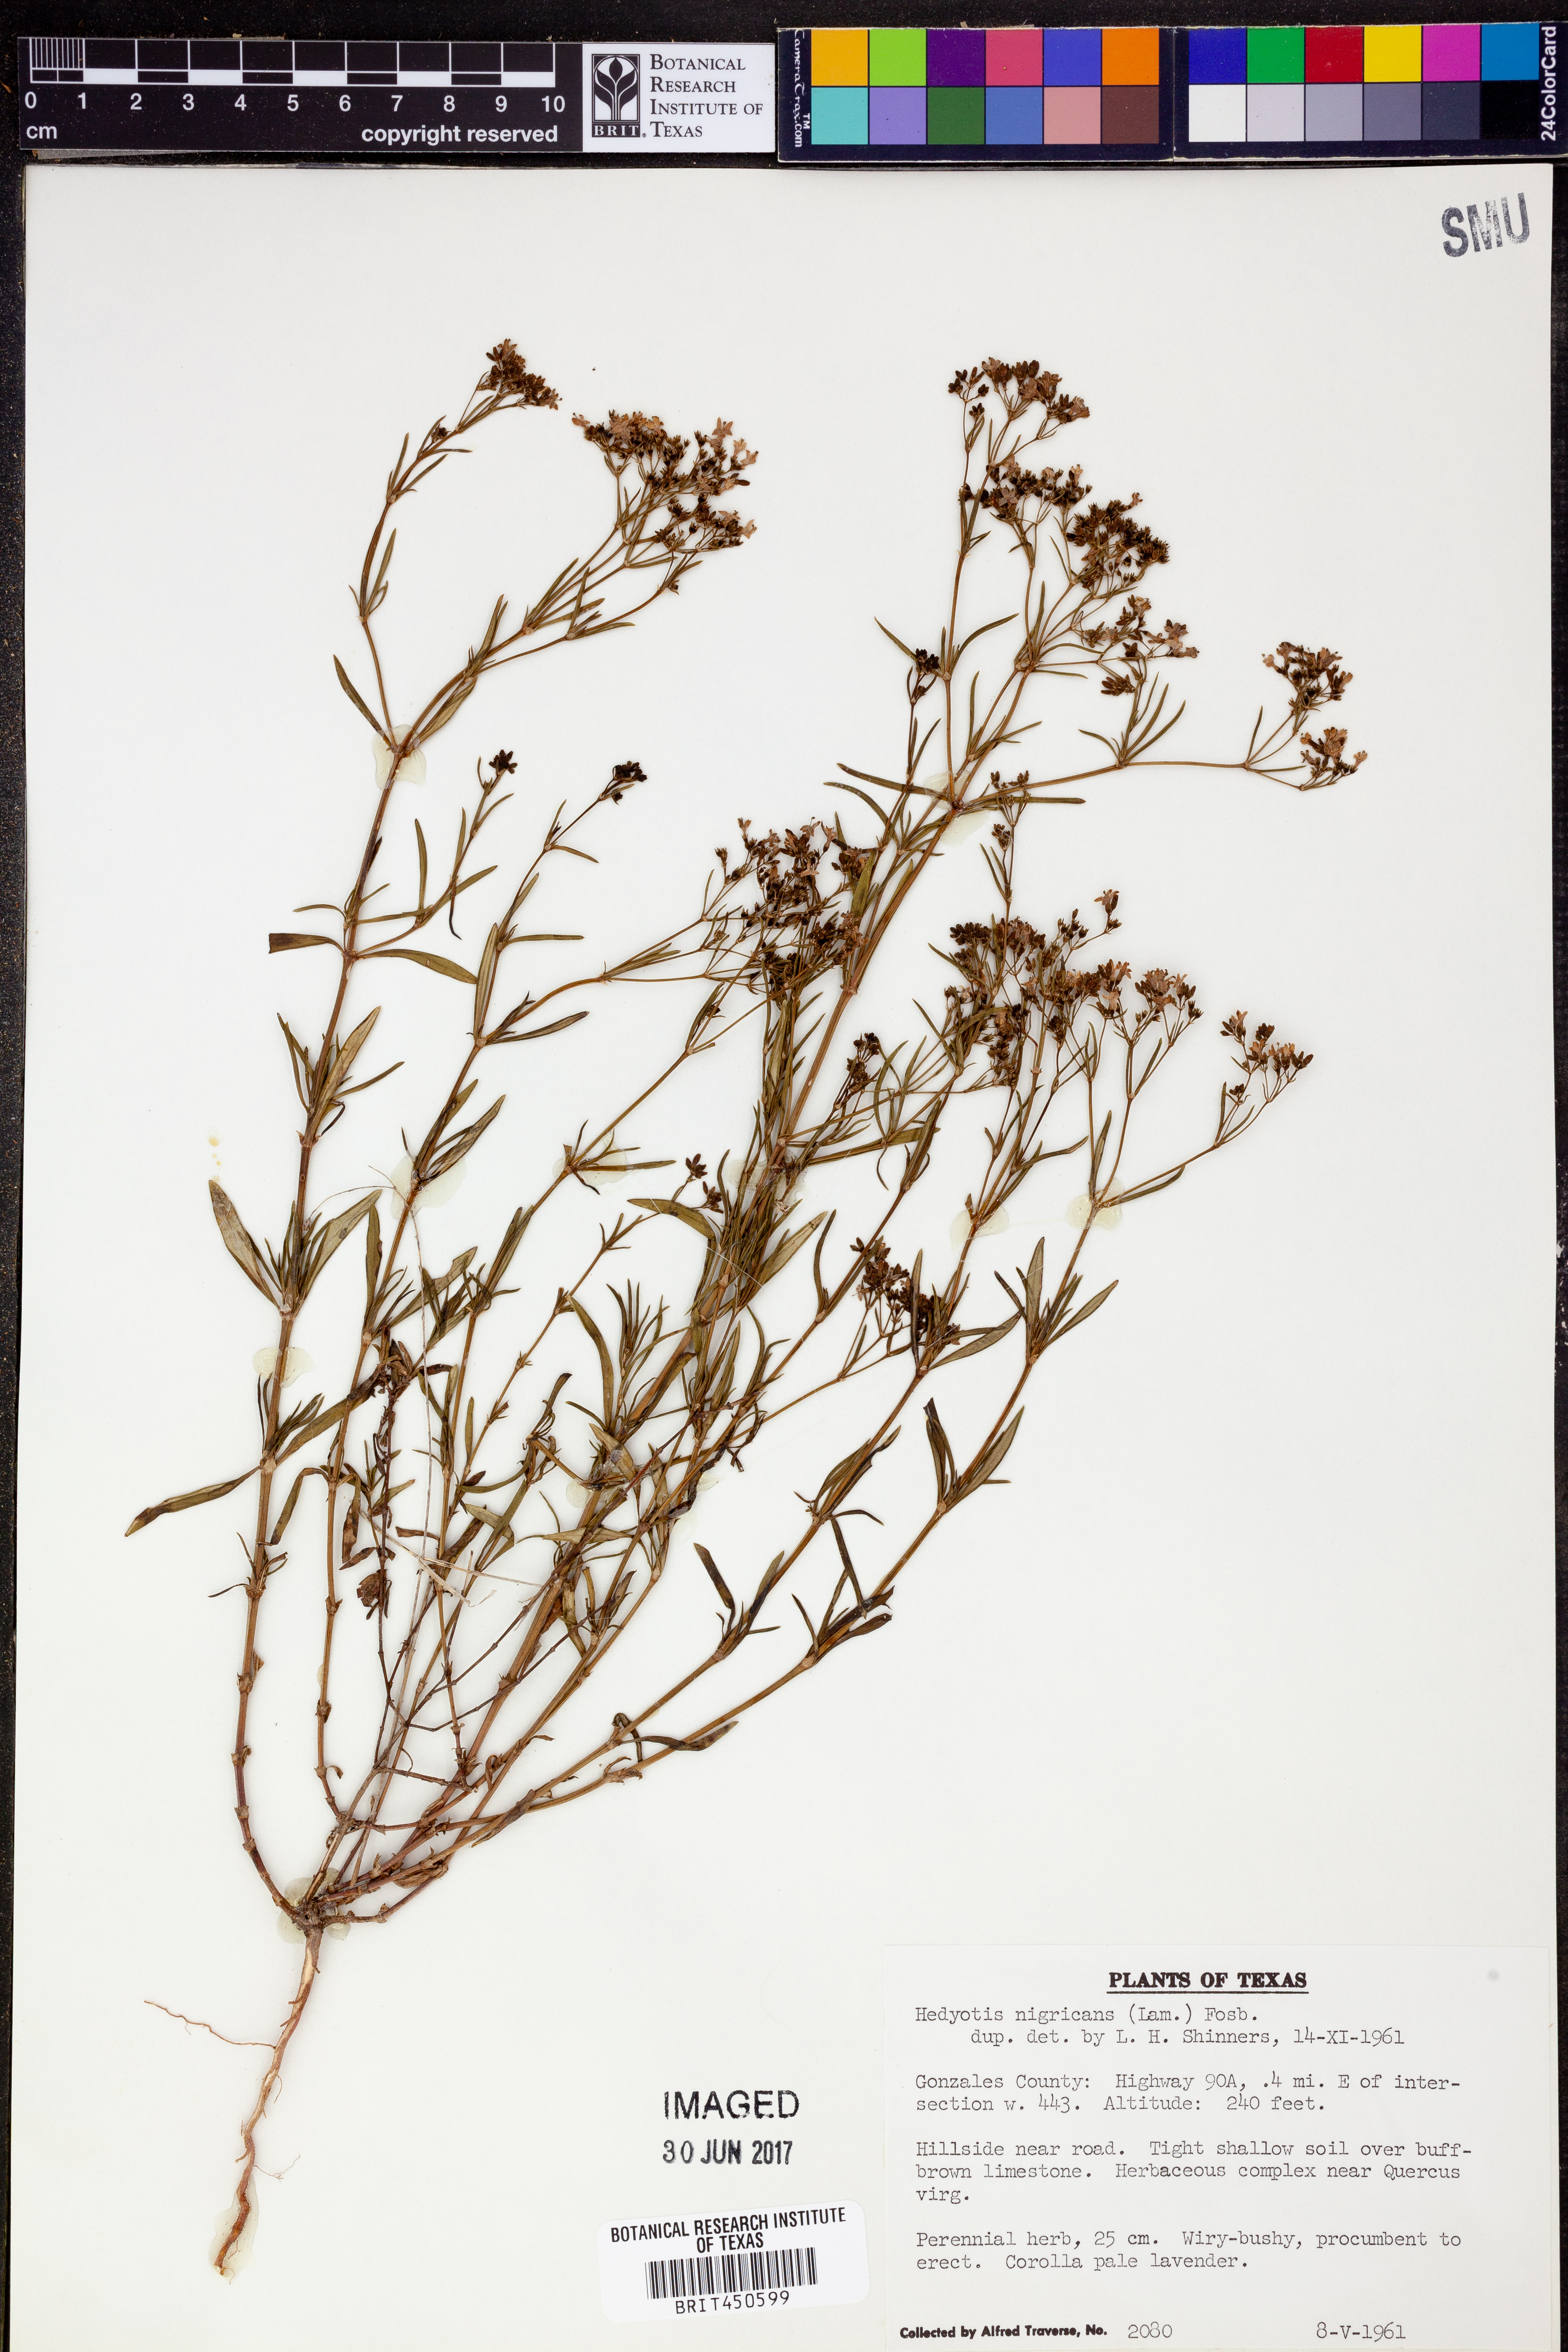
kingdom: Plantae
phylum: Tracheophyta
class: Magnoliopsida
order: Gentianales
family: Rubiaceae
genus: Stenaria
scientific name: Stenaria nigricans
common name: Diamondflowers
